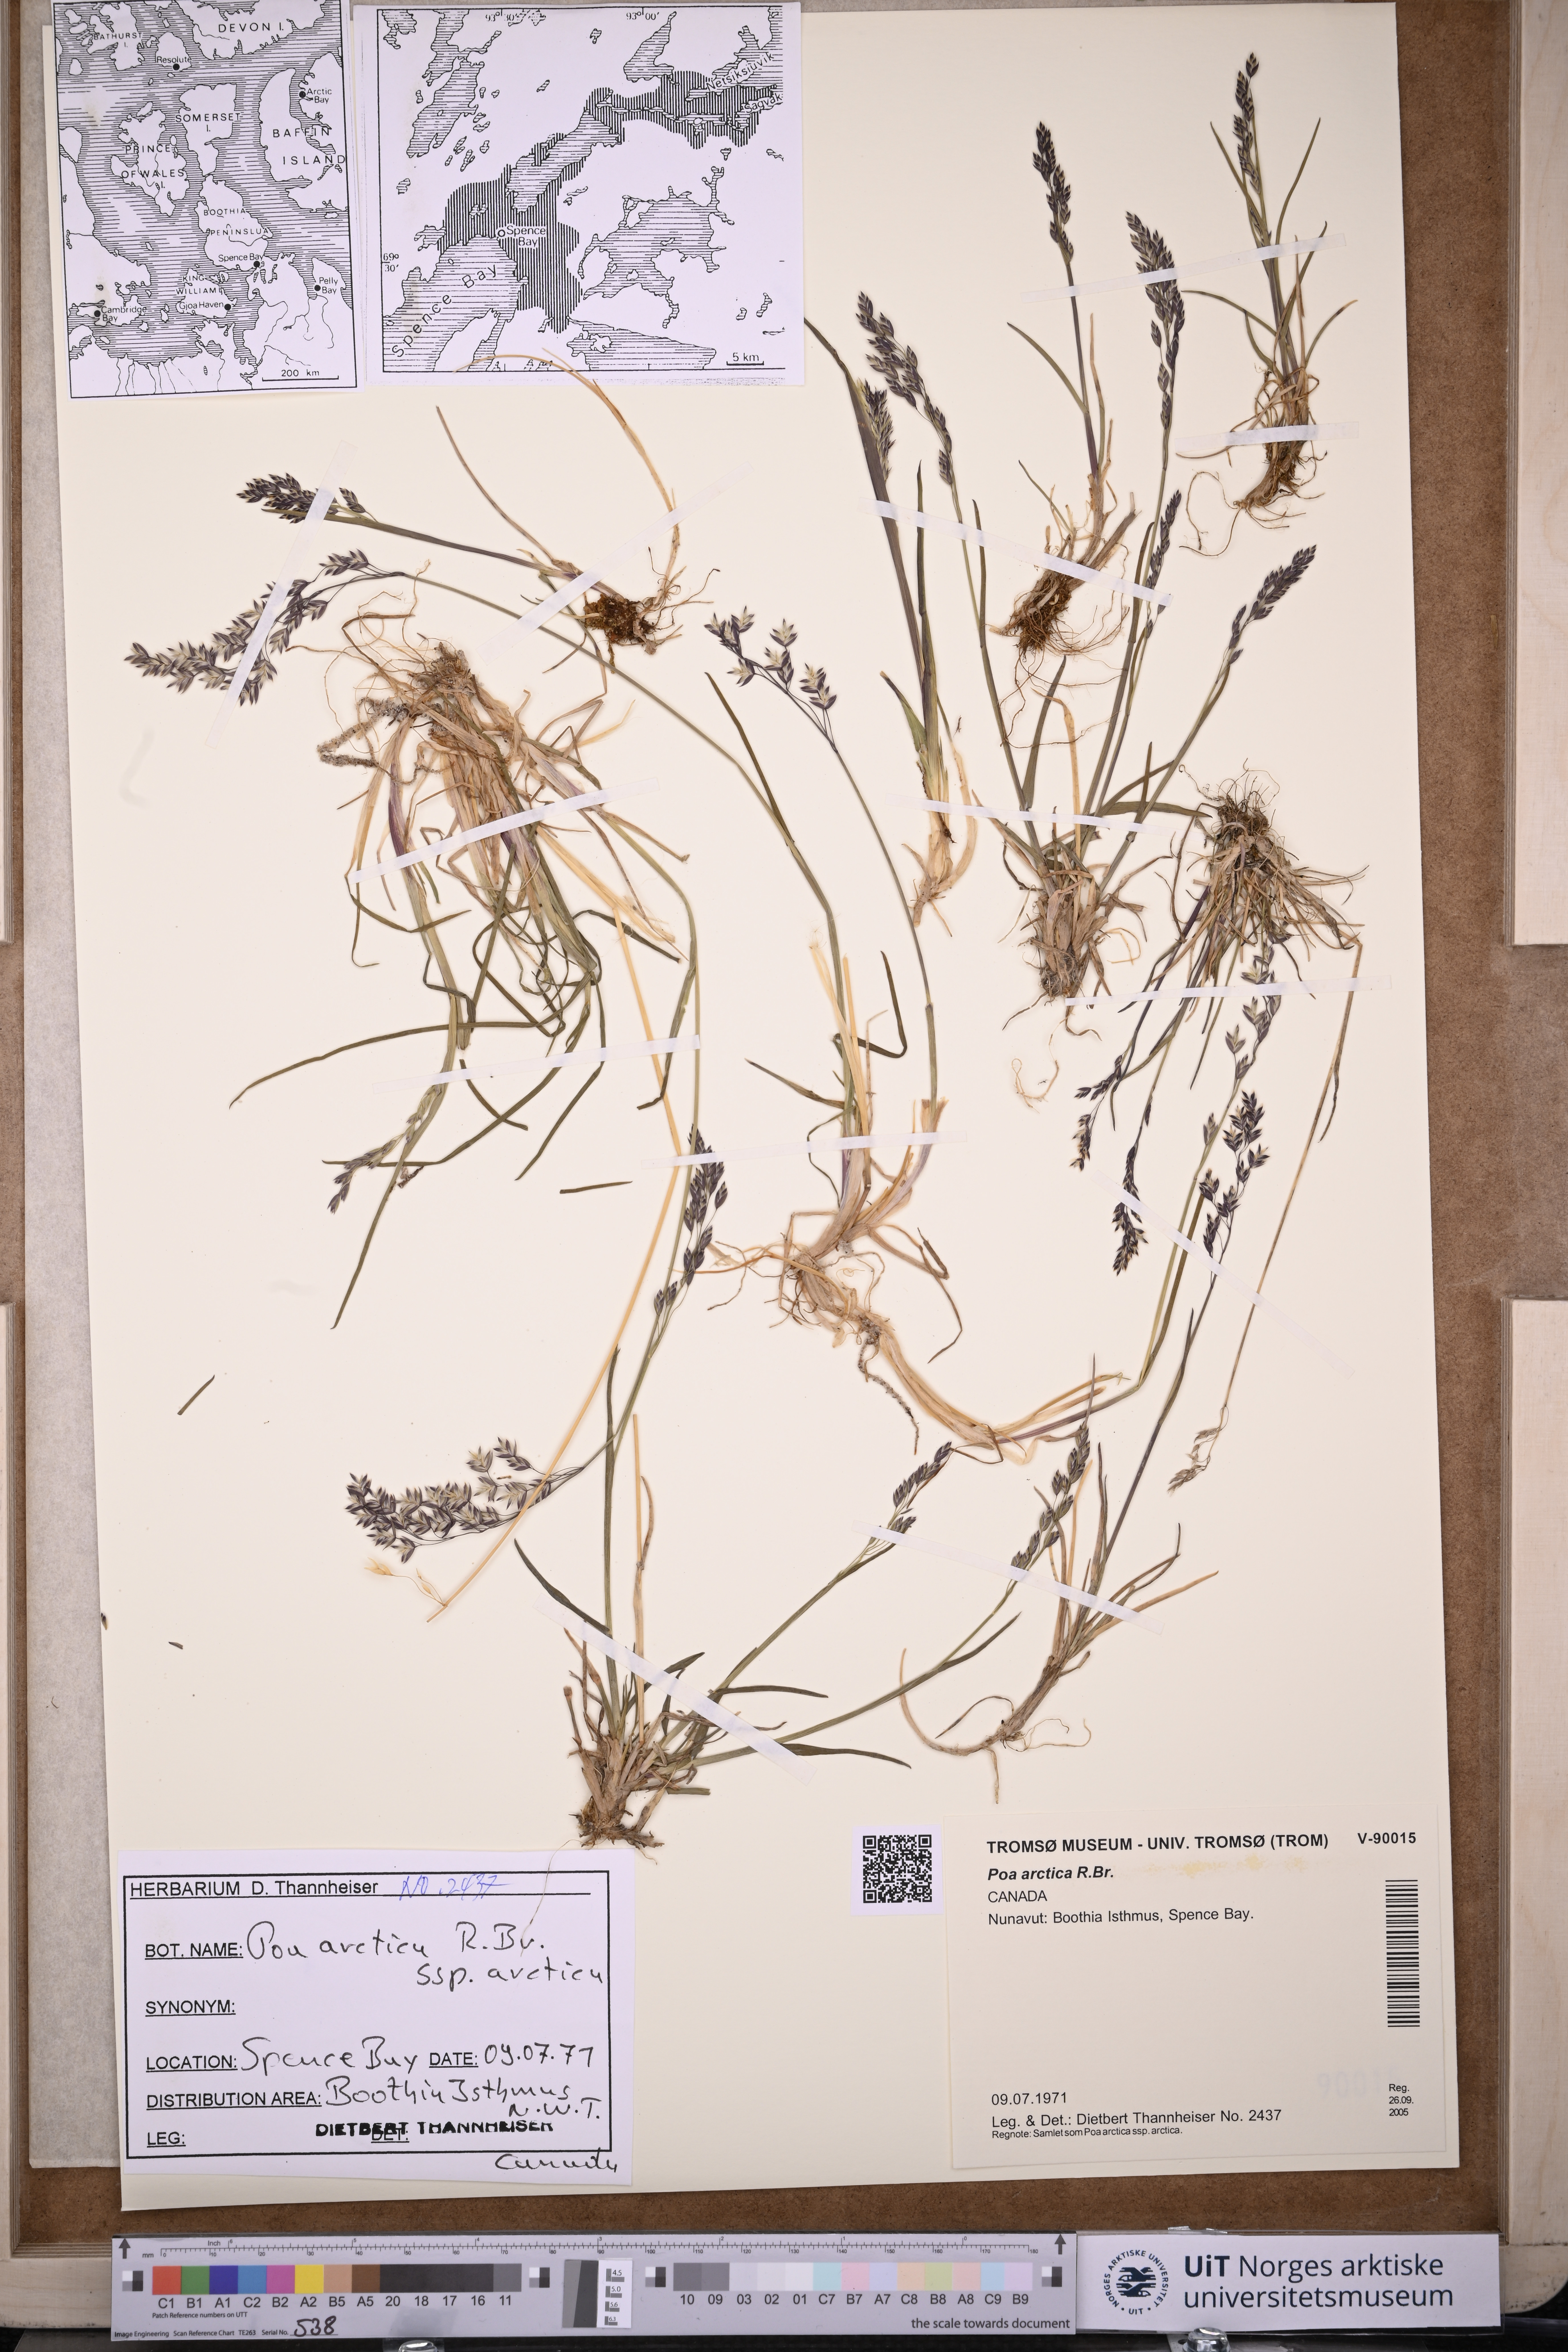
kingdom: Plantae
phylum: Tracheophyta
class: Liliopsida
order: Poales
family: Poaceae
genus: Poa
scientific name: Poa arctica
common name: Arctic bluegrass
